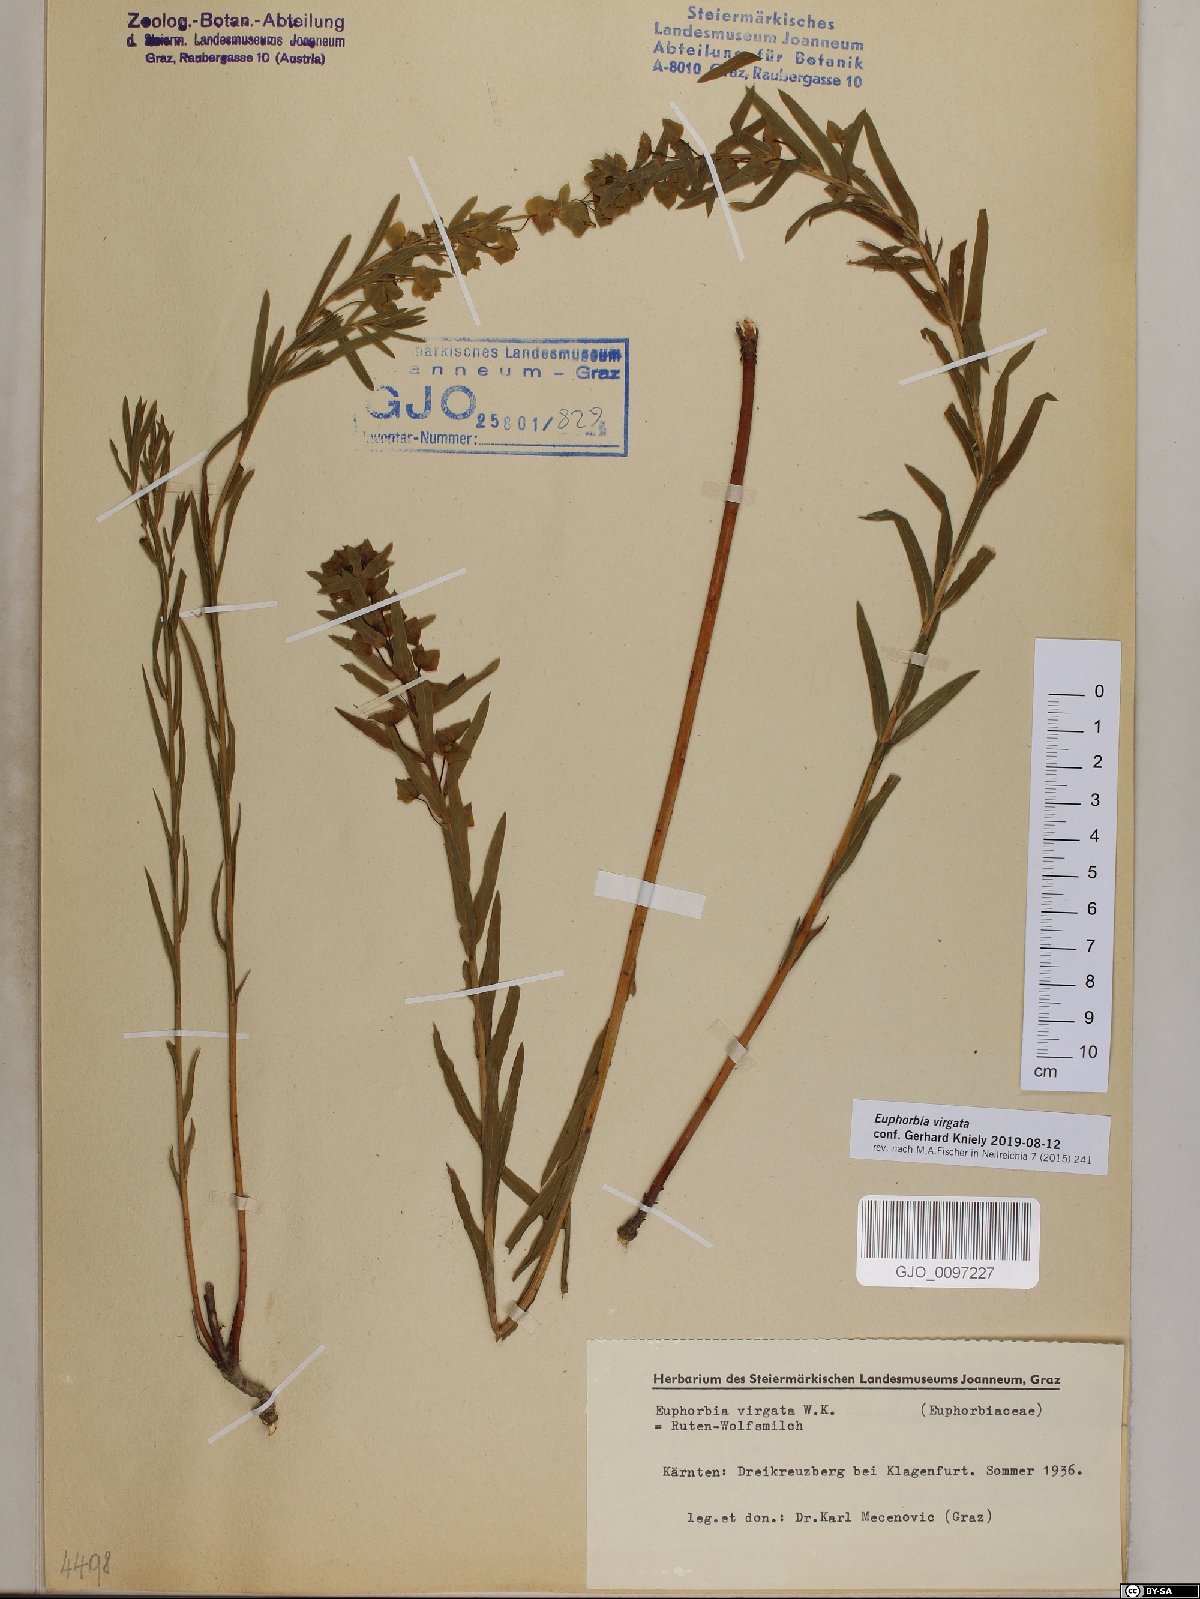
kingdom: Plantae
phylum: Tracheophyta
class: Magnoliopsida
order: Malpighiales
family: Euphorbiaceae
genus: Euphorbia
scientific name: Euphorbia virgata
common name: Leafy spurge
